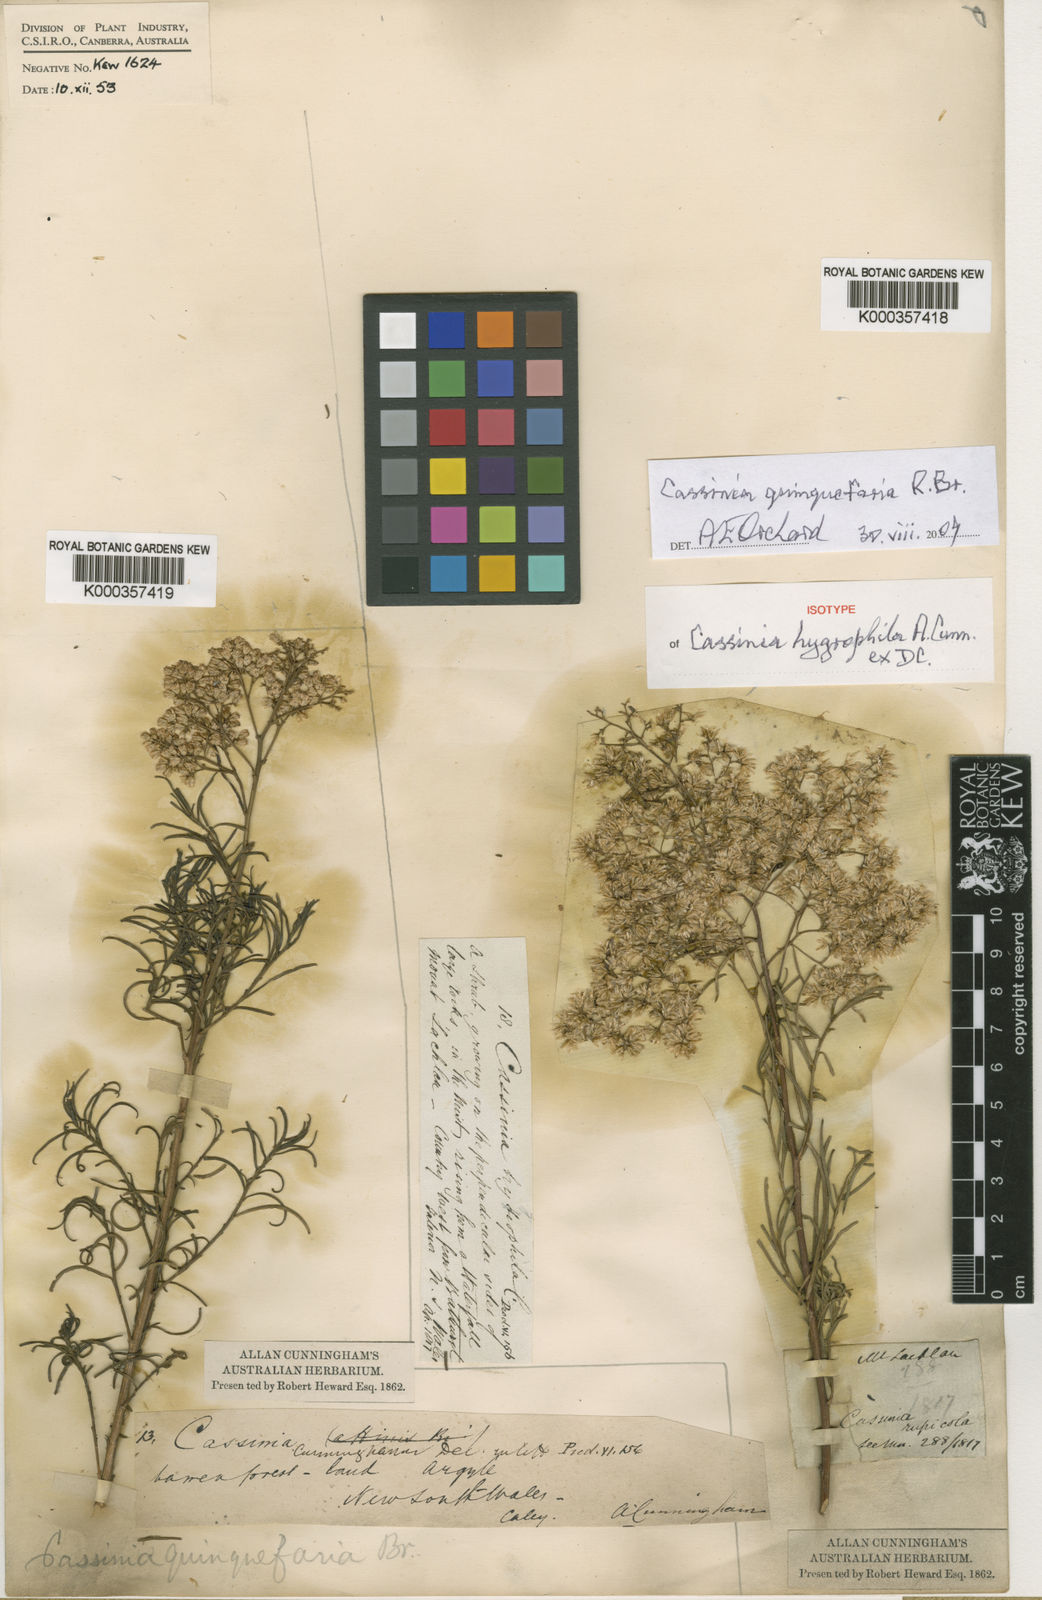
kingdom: Plantae
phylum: Tracheophyta
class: Magnoliopsida
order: Asterales
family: Asteraceae
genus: Cassinia
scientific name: Cassinia quinquefaria
